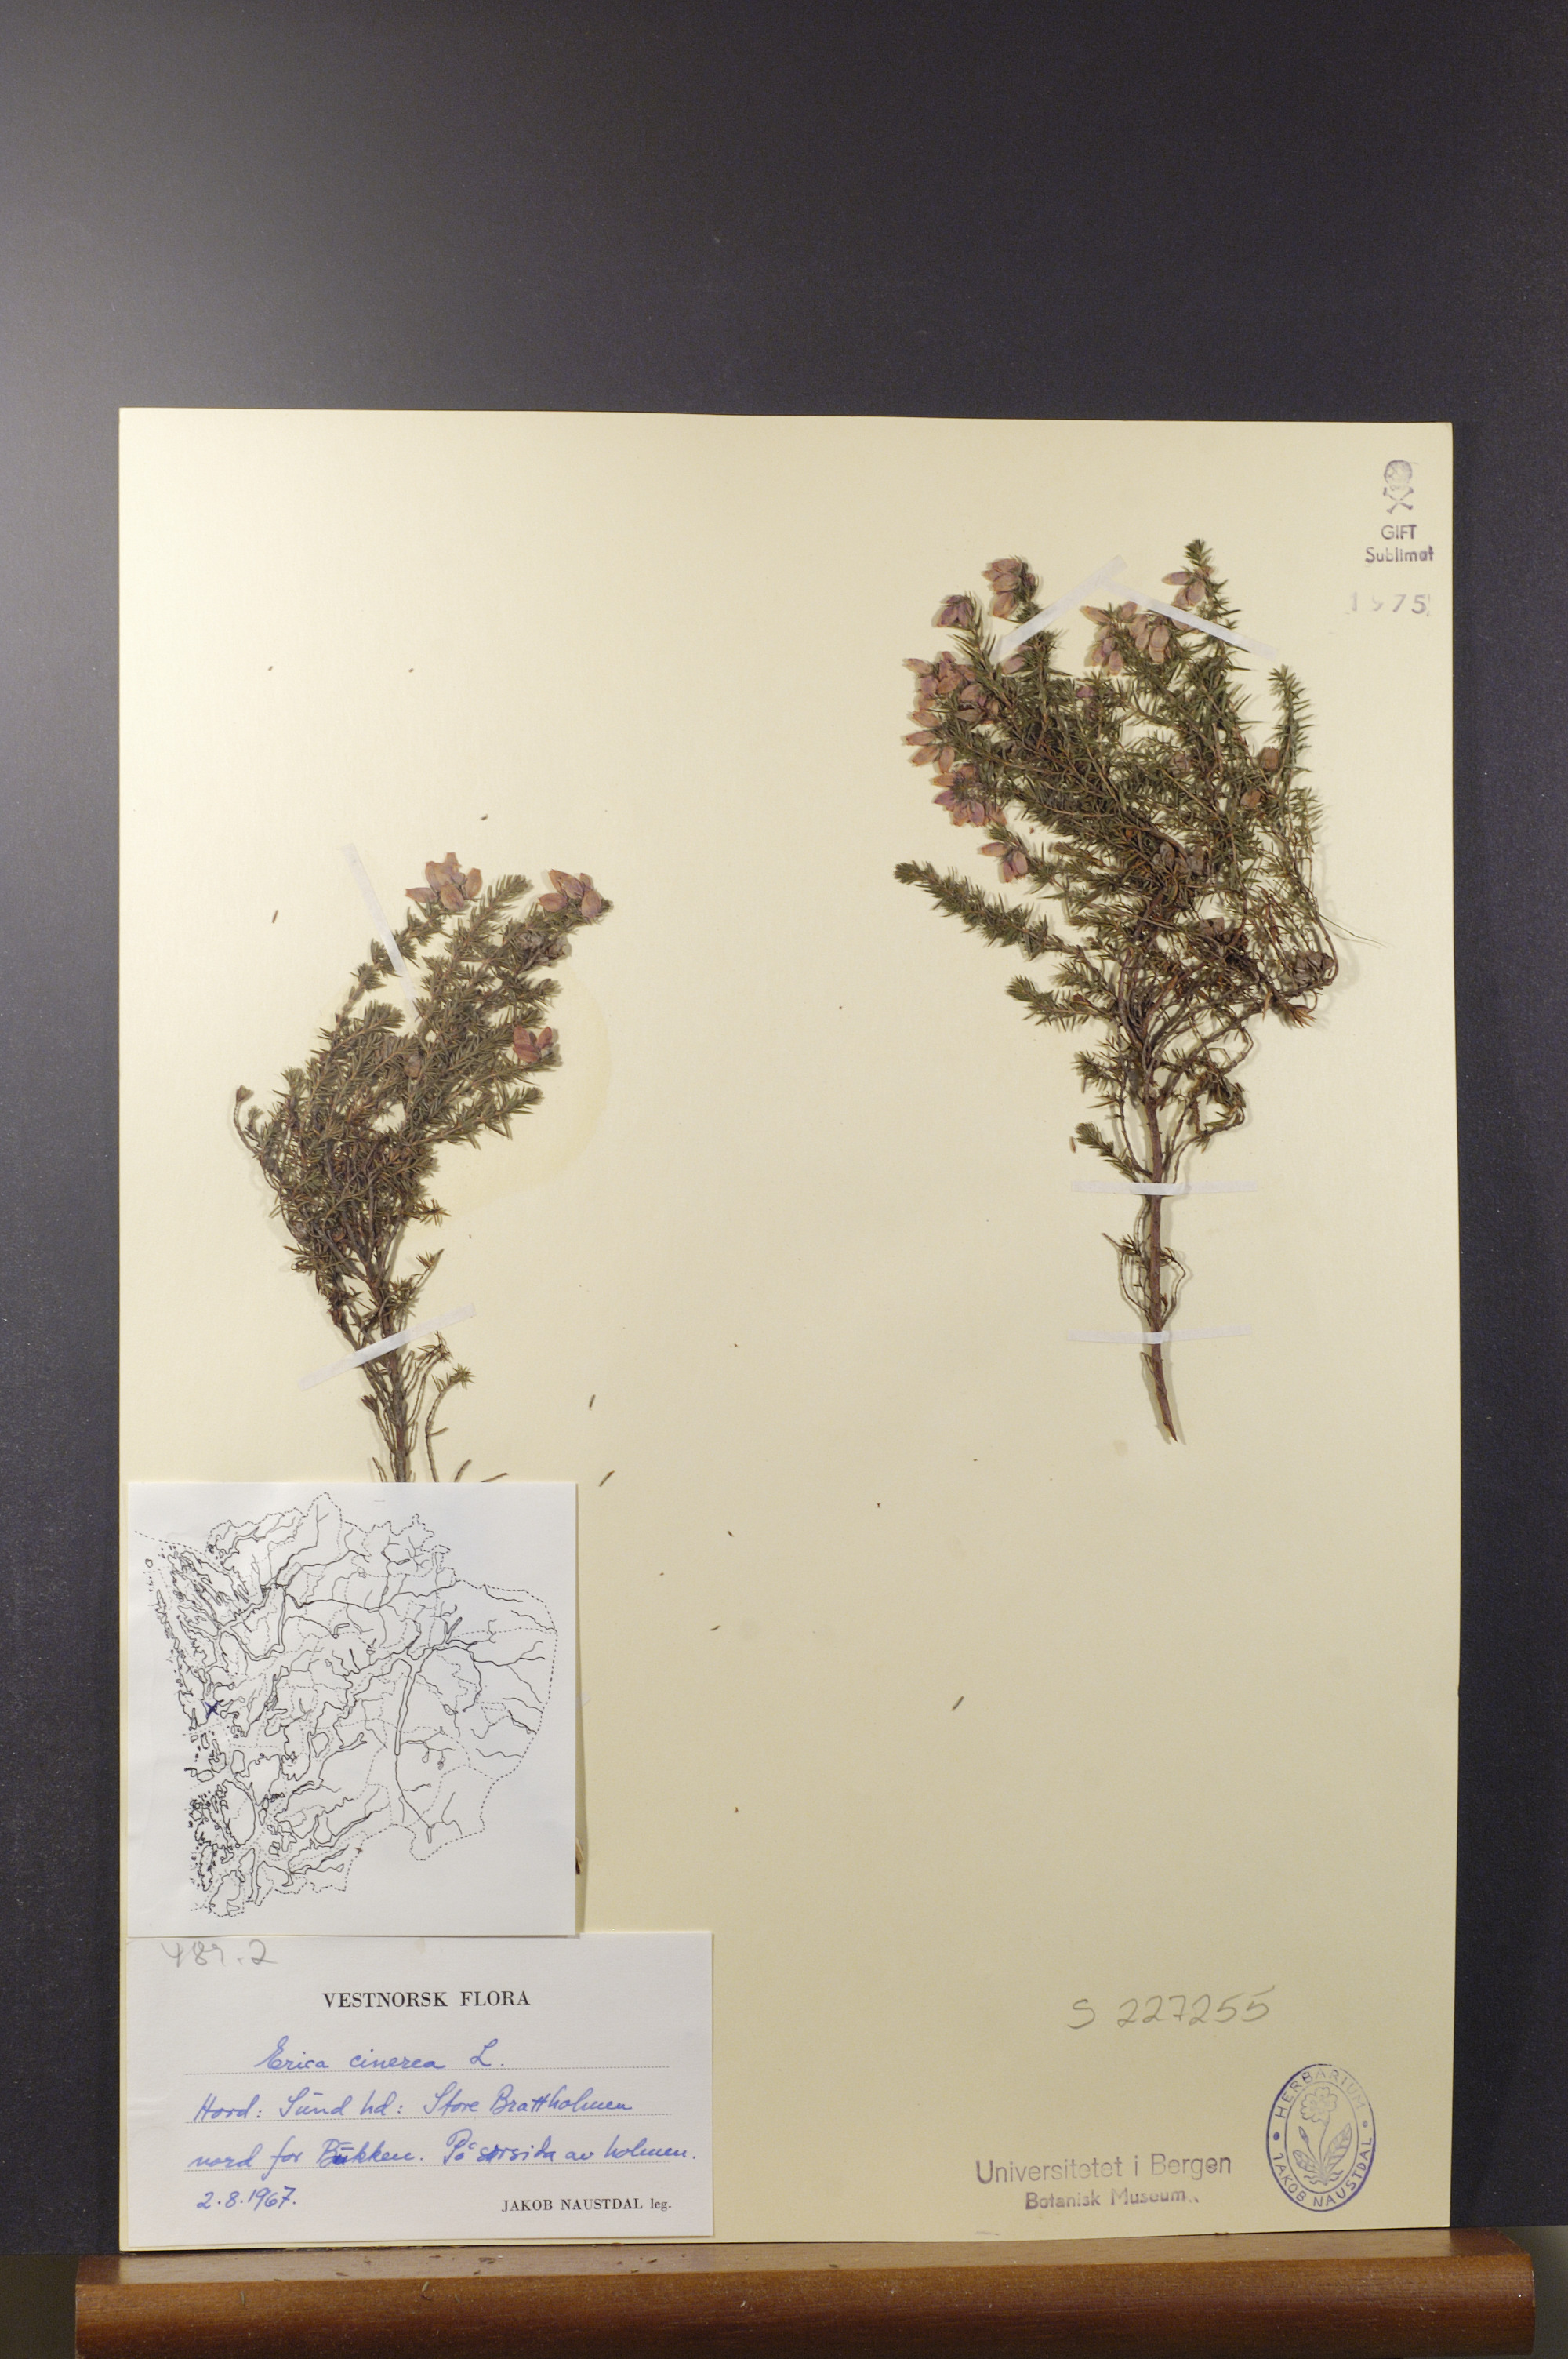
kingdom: Plantae
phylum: Tracheophyta
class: Magnoliopsida
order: Ericales
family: Ericaceae
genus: Erica
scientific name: Erica cinerea
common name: Bell heather
